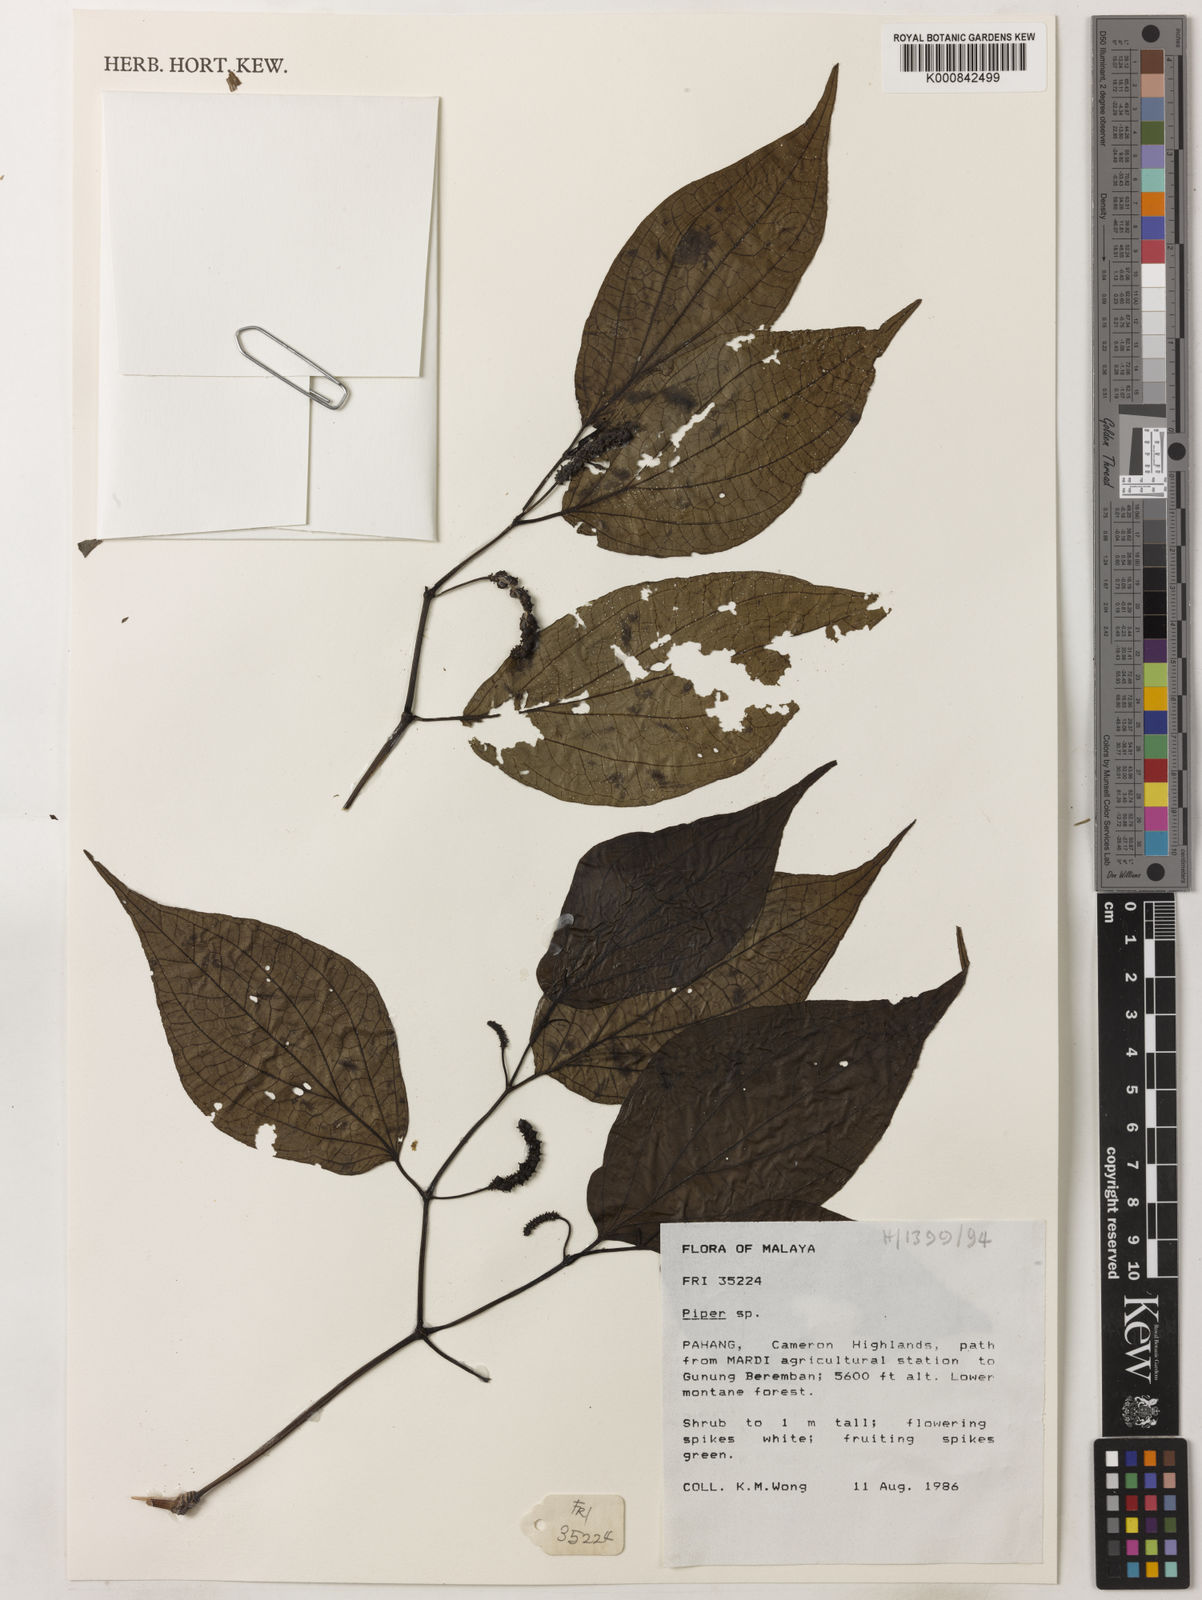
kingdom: Plantae
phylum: Tracheophyta
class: Magnoliopsida
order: Piperales
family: Piperaceae
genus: Piper
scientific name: Piper
